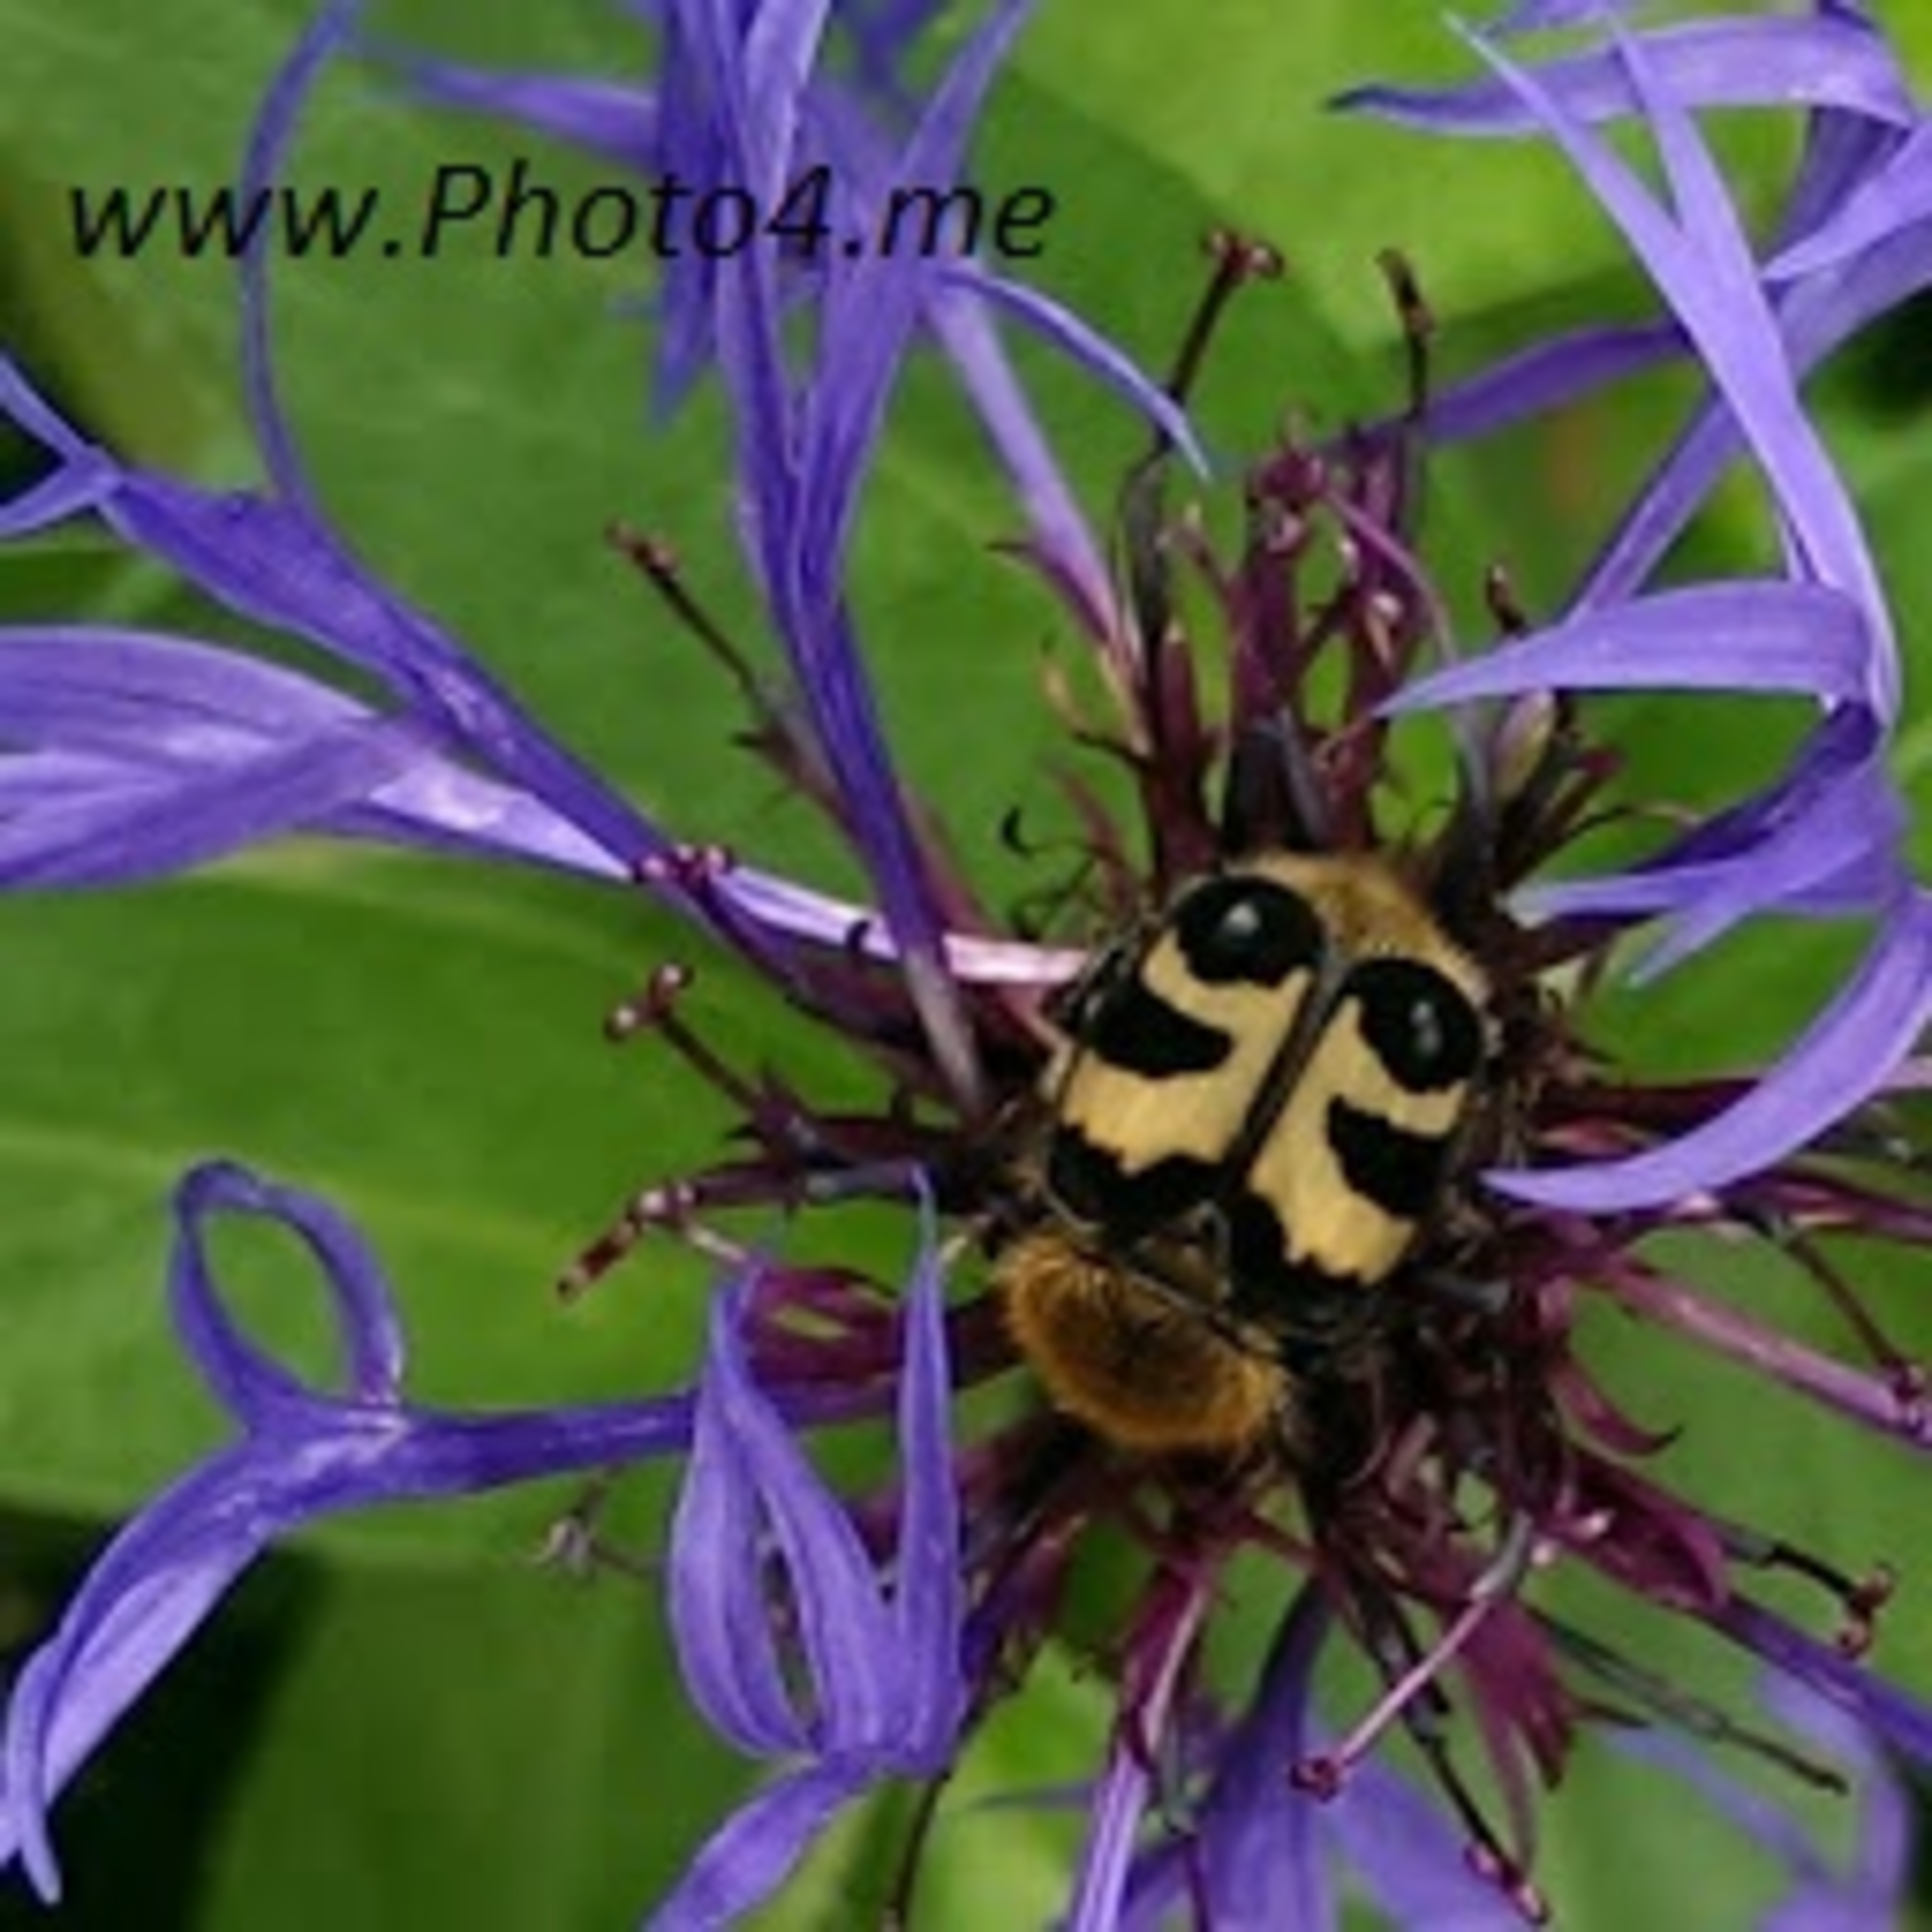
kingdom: Animalia
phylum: Arthropoda
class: Insecta
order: Coleoptera
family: Scarabaeidae
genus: Trichius
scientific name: Trichius gallicus
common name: Lille humlebille
